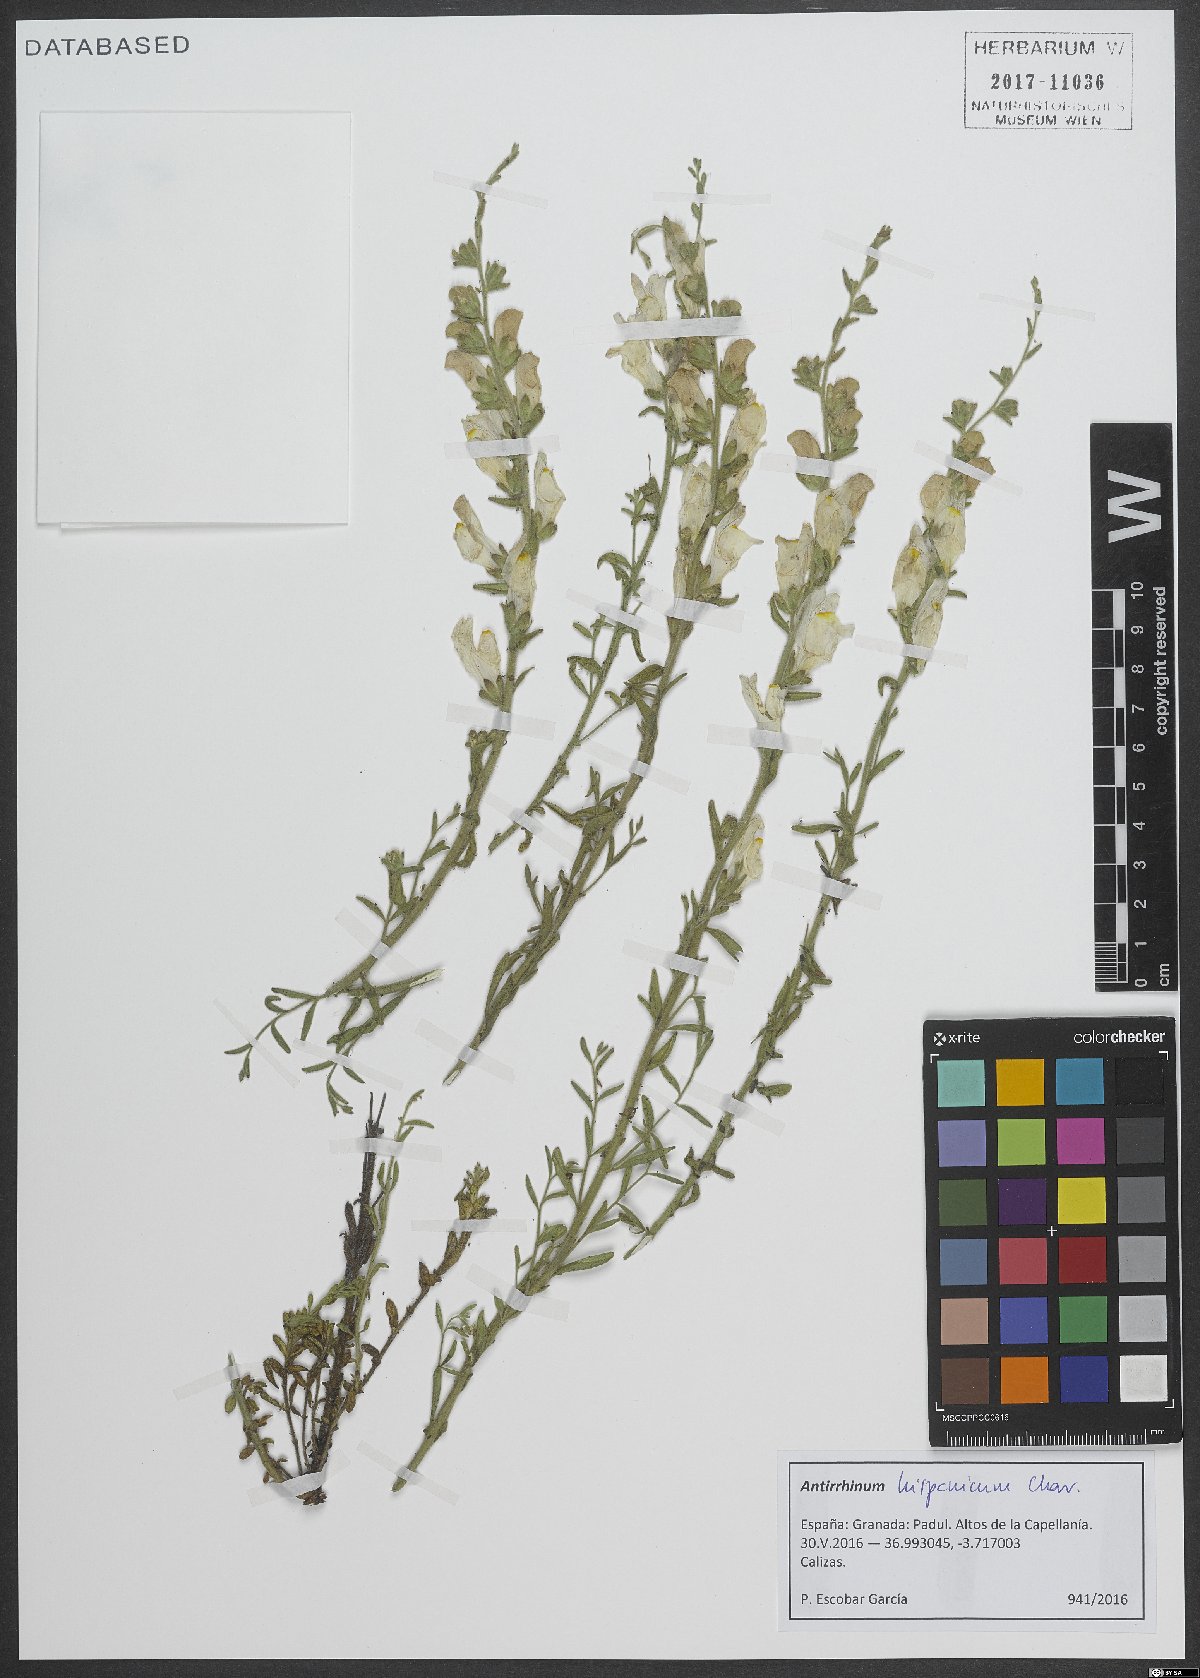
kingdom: Plantae
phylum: Tracheophyta
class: Magnoliopsida
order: Lamiales
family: Plantaginaceae
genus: Antirrhinum
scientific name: Antirrhinum hispanicum
